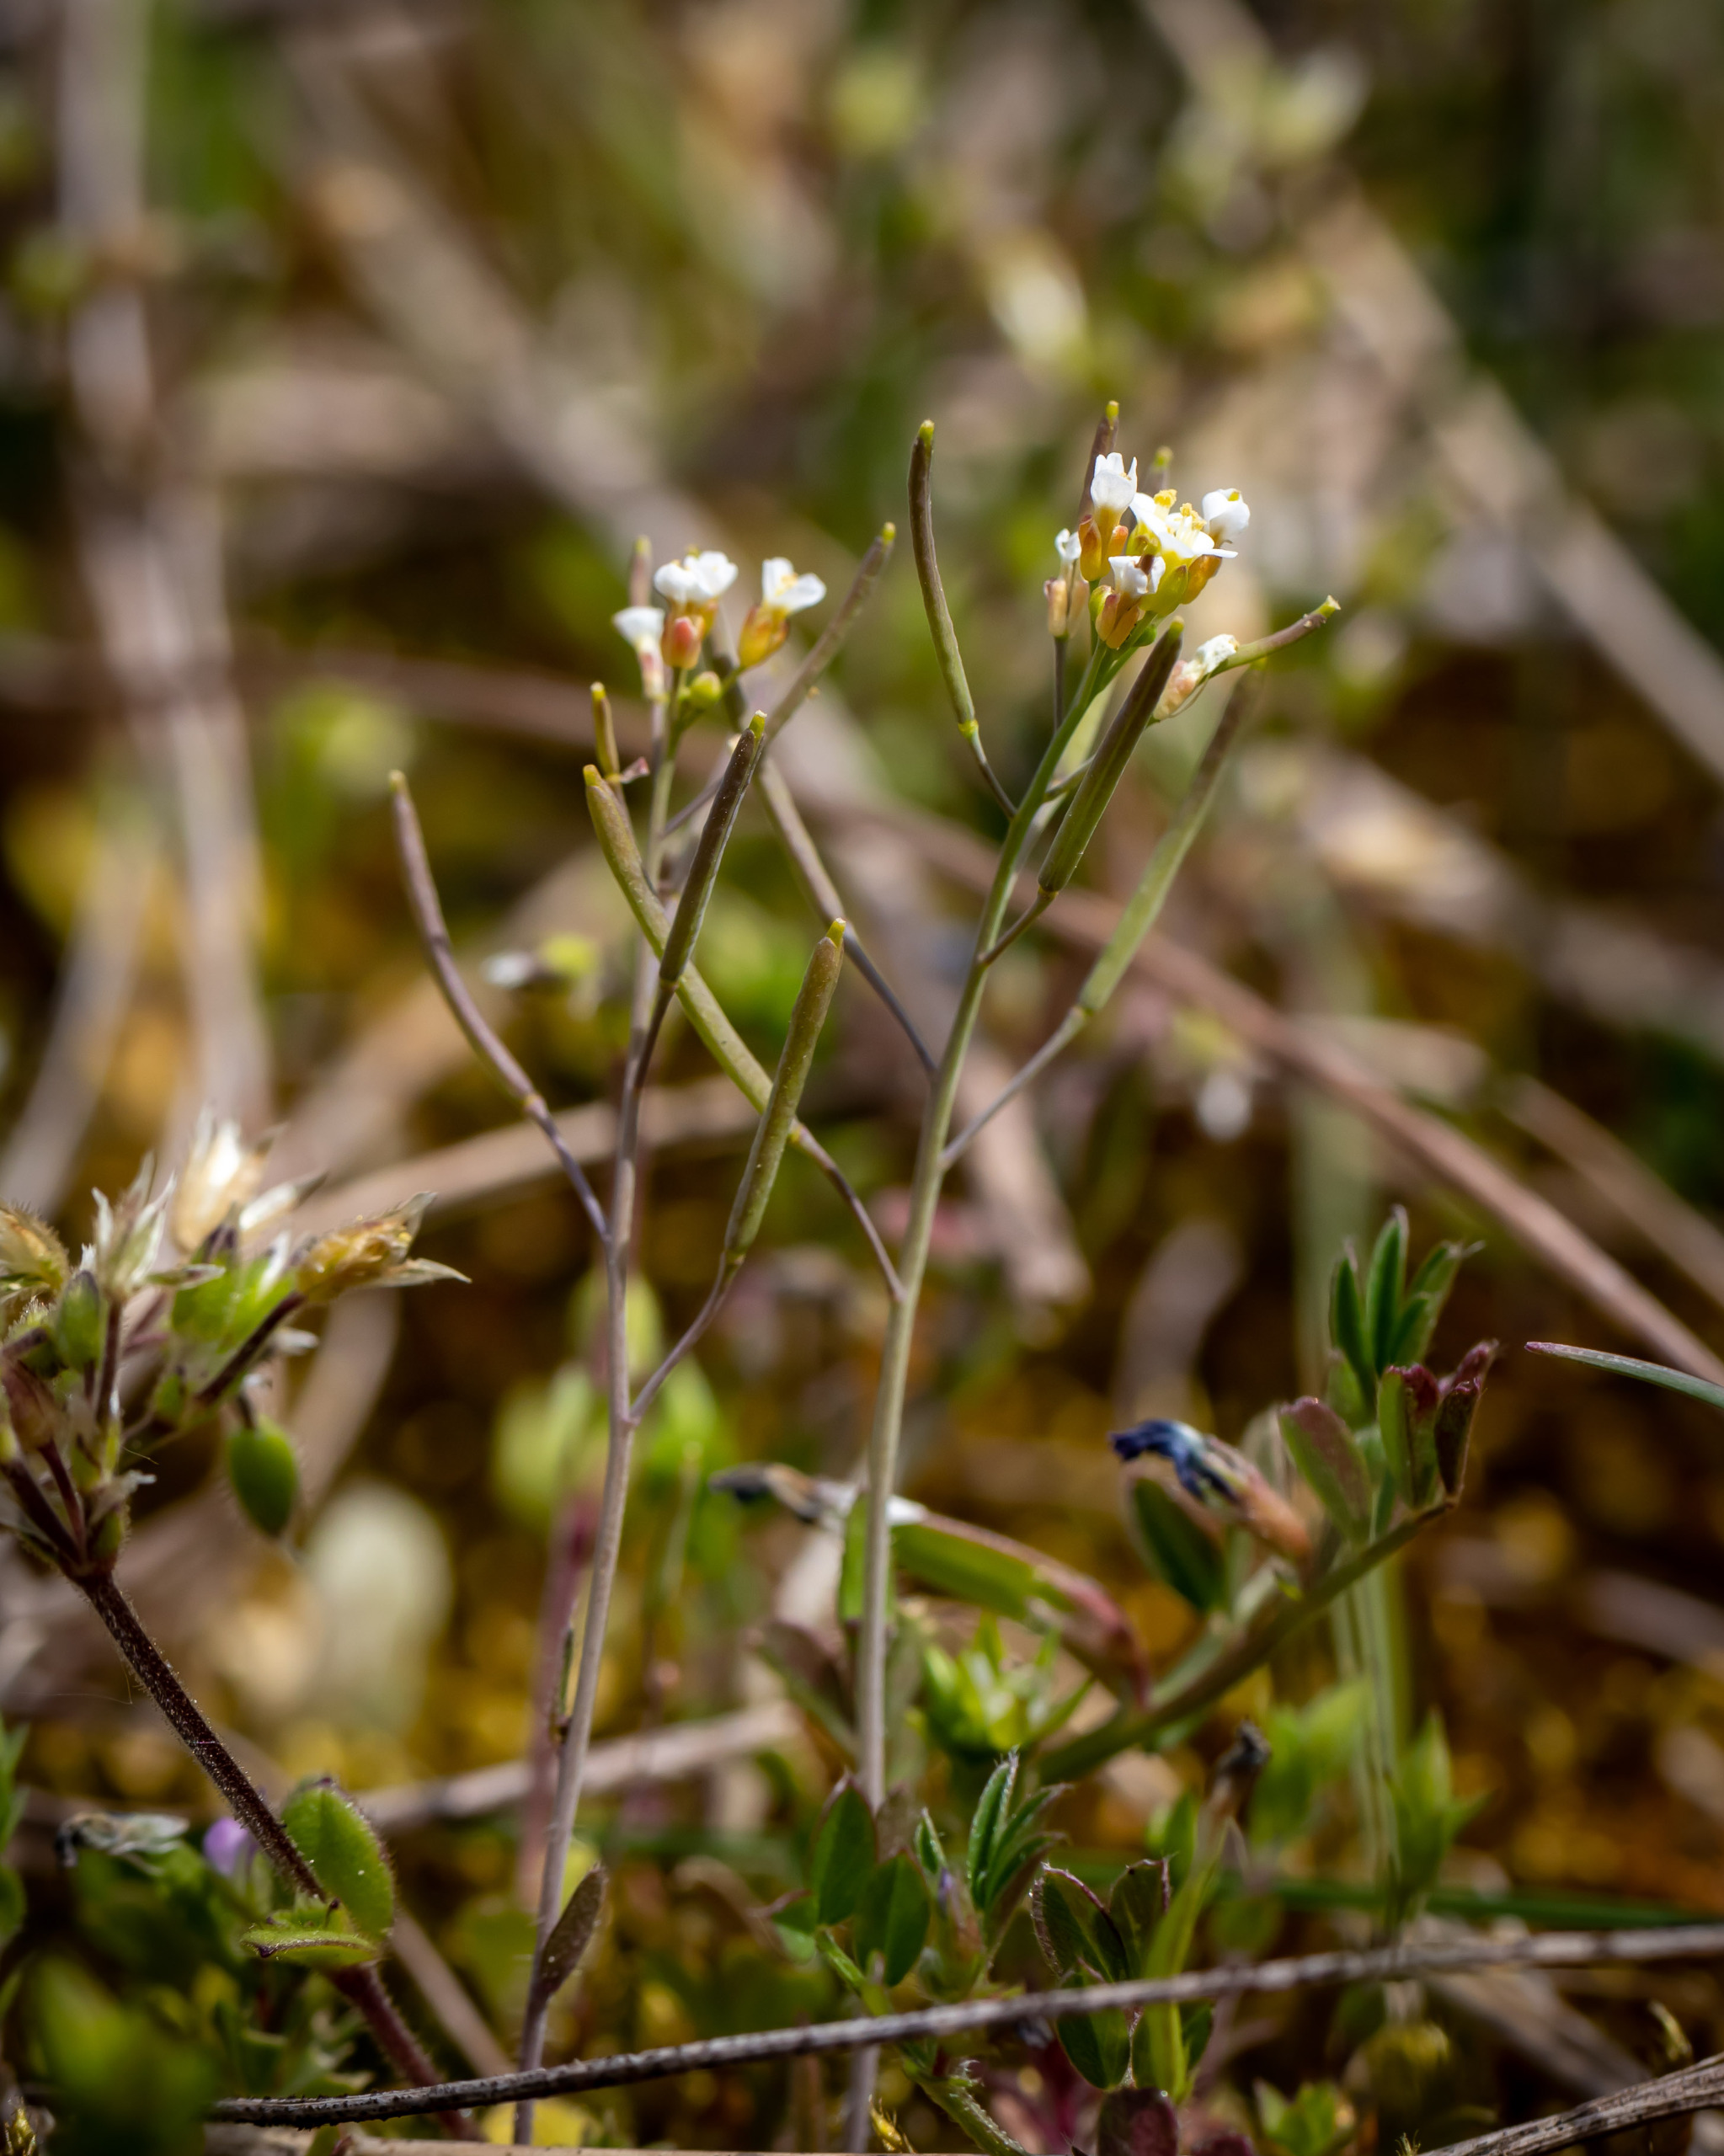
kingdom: Plantae
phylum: Tracheophyta
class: Magnoliopsida
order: Brassicales
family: Brassicaceae
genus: Arabidopsis
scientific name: Arabidopsis thaliana
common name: Almindelig gåsemad
